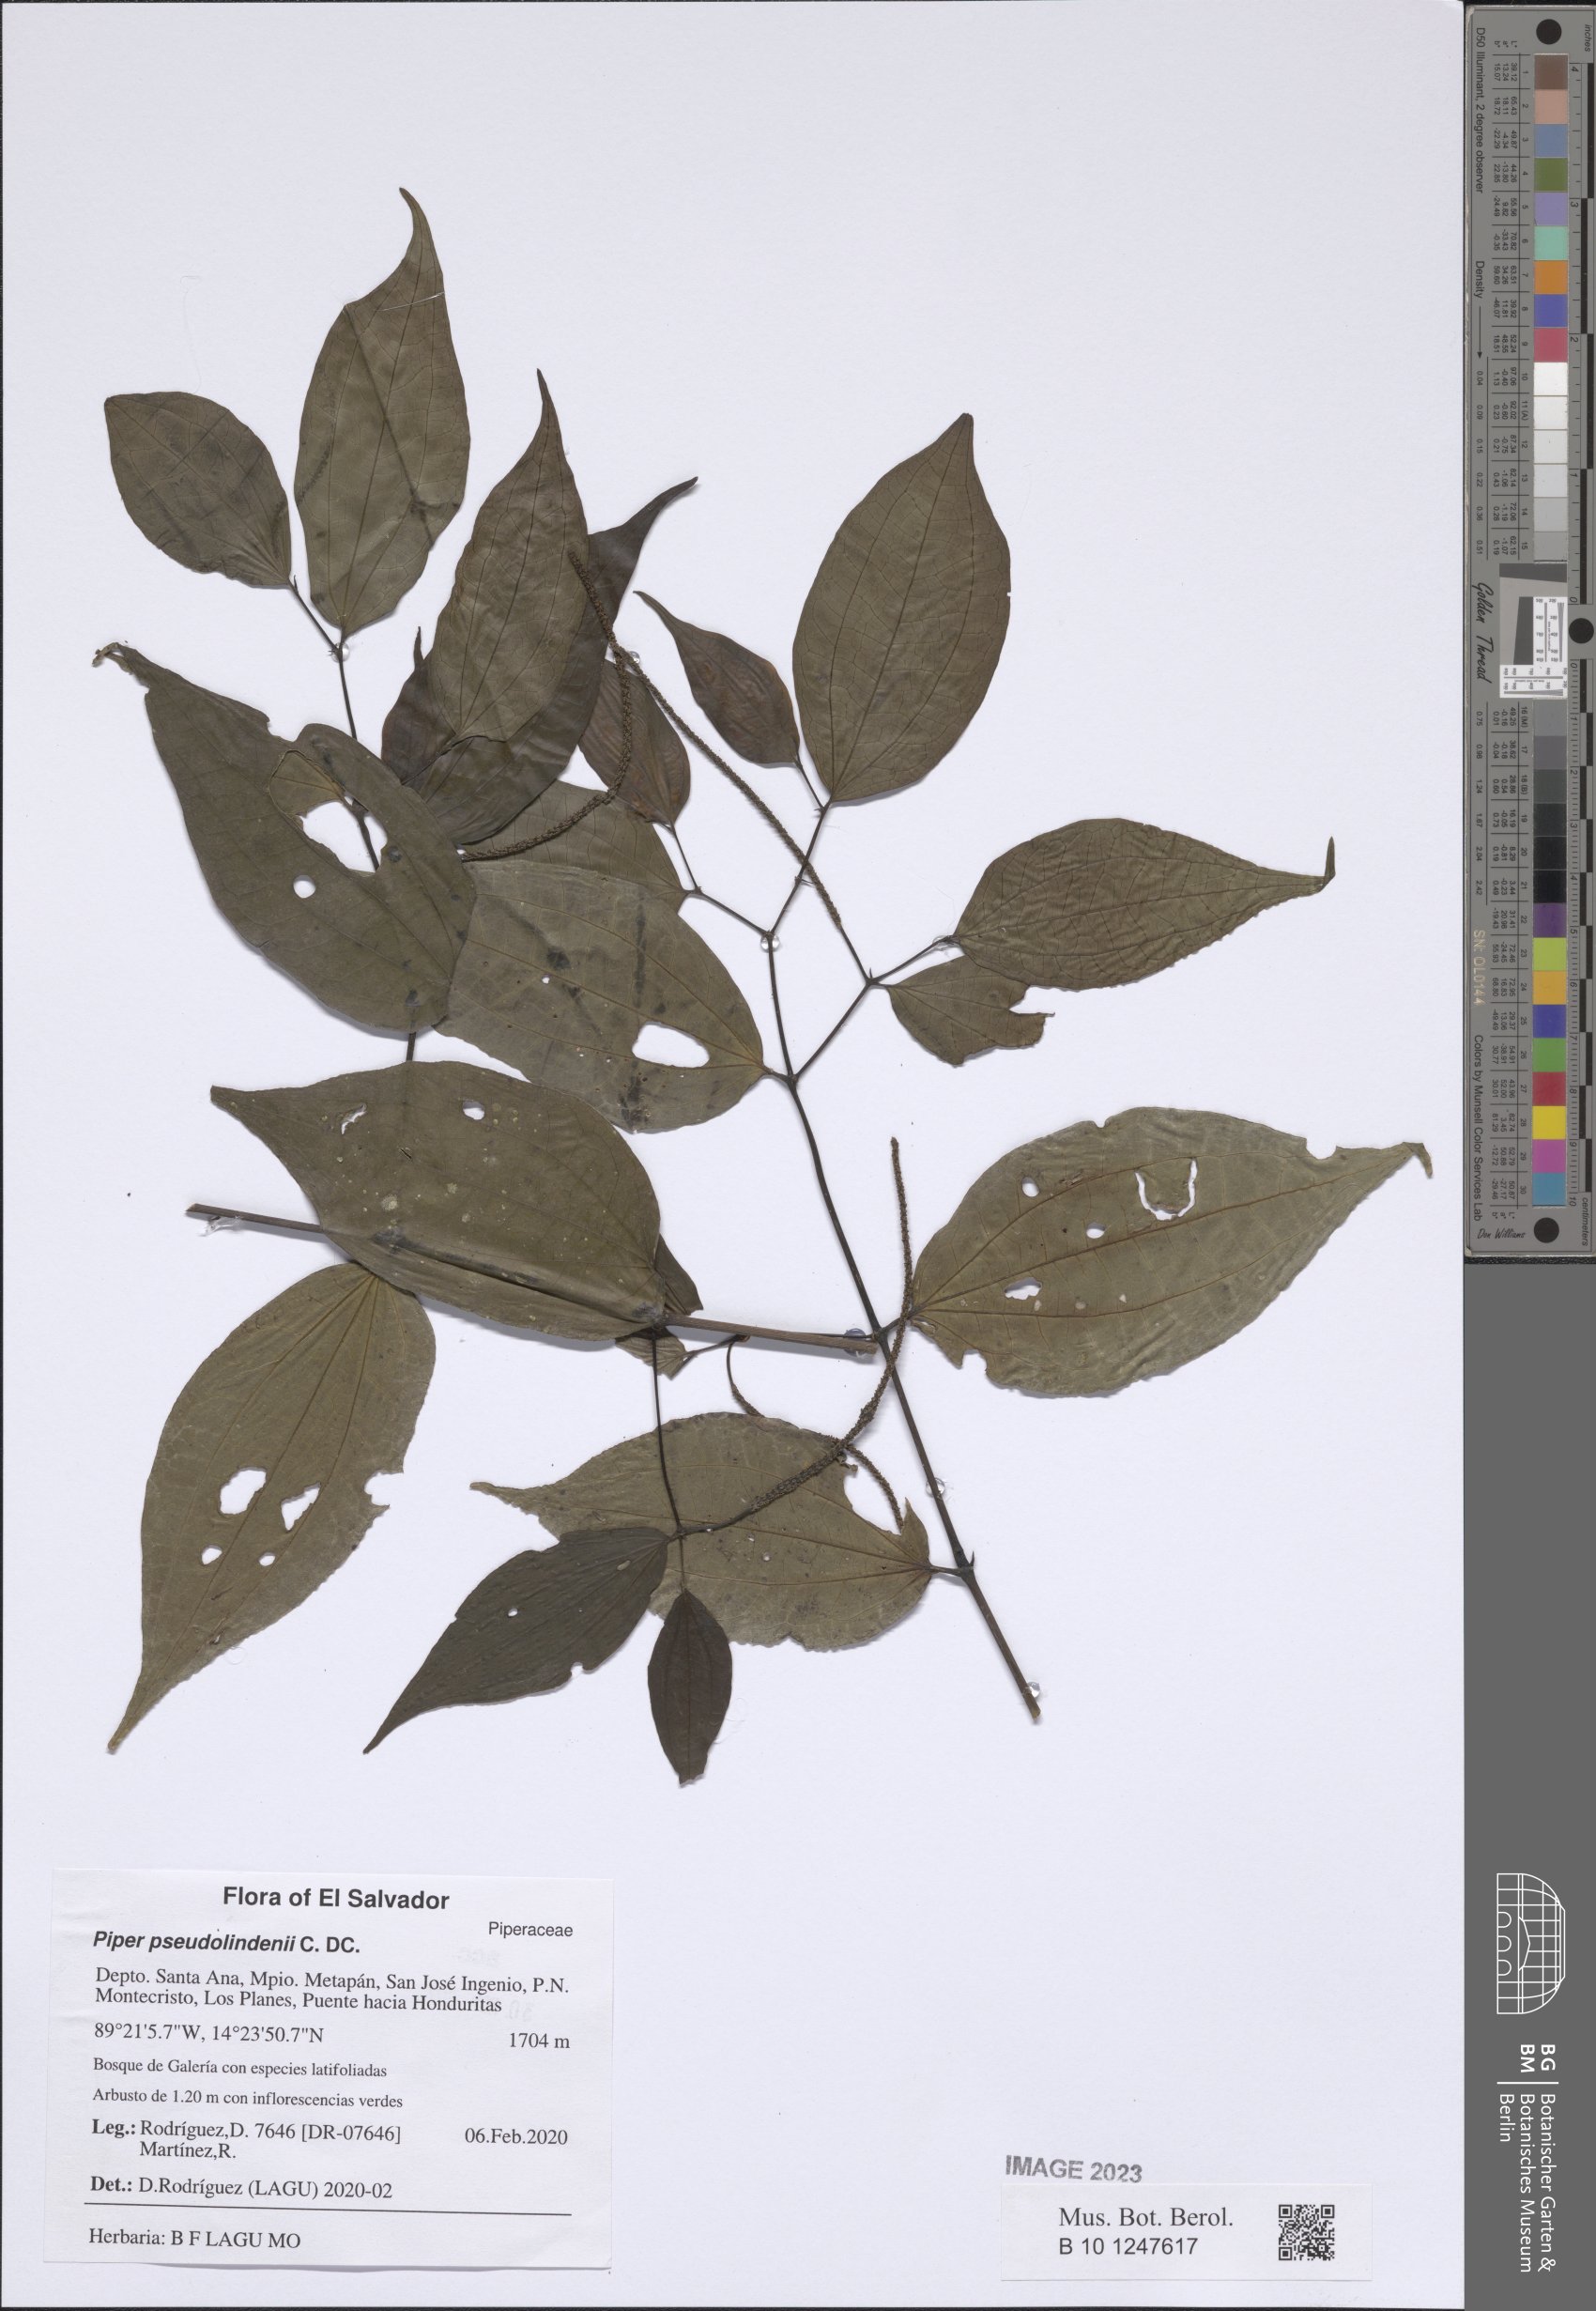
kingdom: Plantae
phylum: Tracheophyta
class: Magnoliopsida
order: Piperales
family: Piperaceae
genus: Piper
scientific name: Piper pseudolindenii
